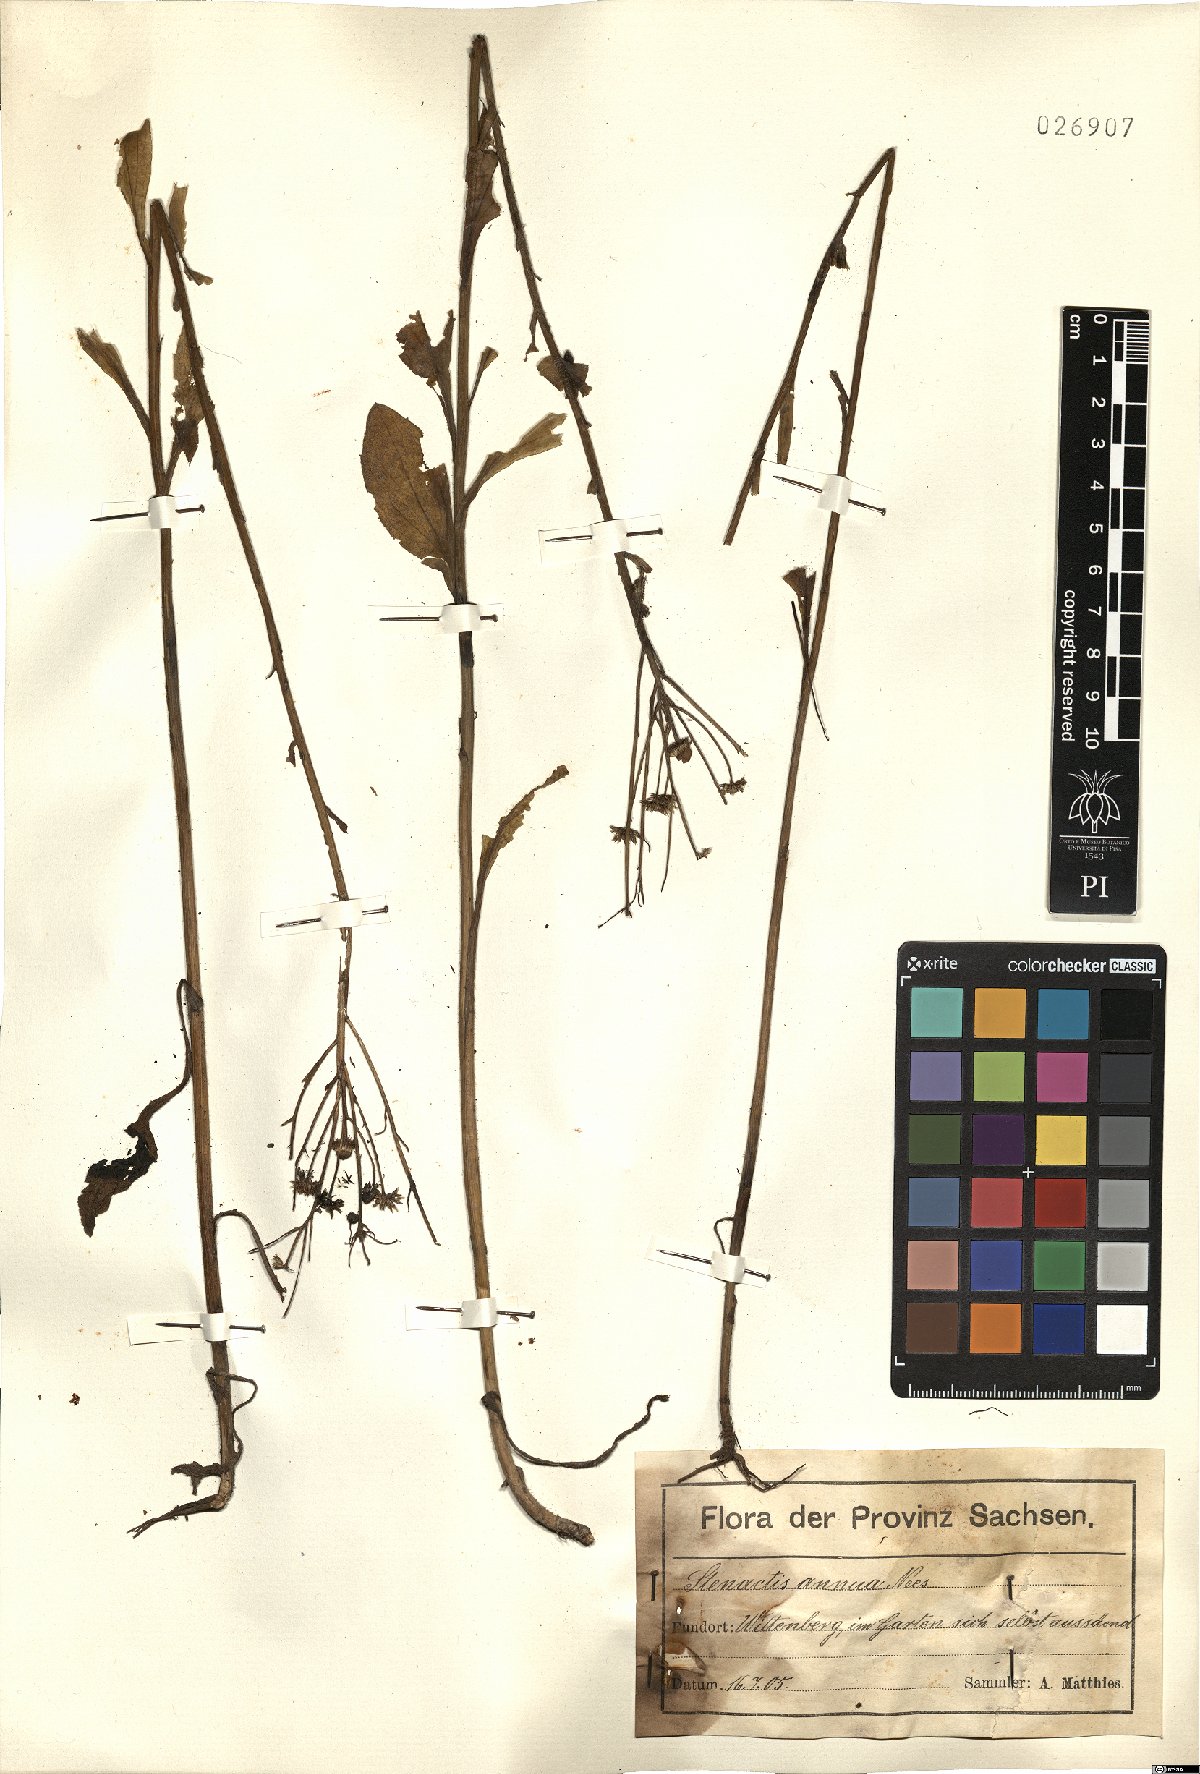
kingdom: Plantae
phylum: Tracheophyta
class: Magnoliopsida
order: Asterales
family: Asteraceae
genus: Erigeron
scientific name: Erigeron annuus
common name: Tall fleabane
